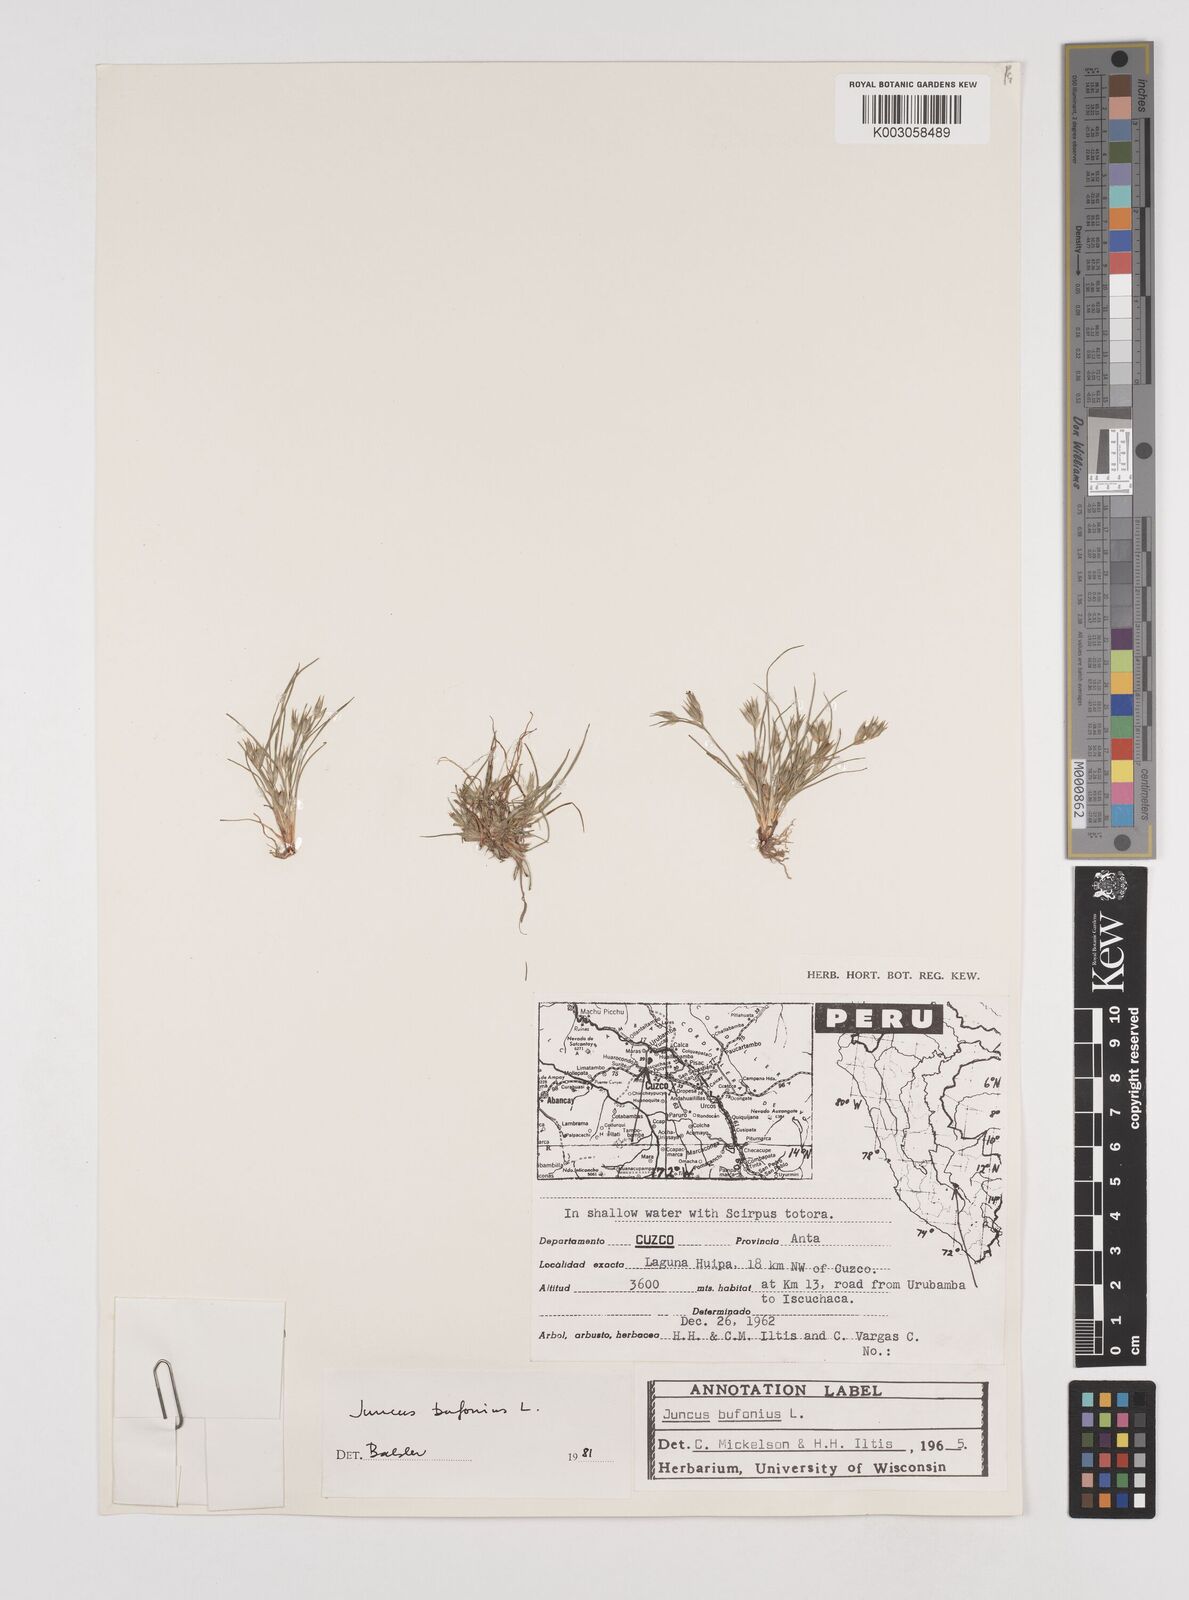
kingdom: Plantae
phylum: Tracheophyta
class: Liliopsida
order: Poales
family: Juncaceae
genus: Juncus
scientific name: Juncus bufonius
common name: Toad rush
